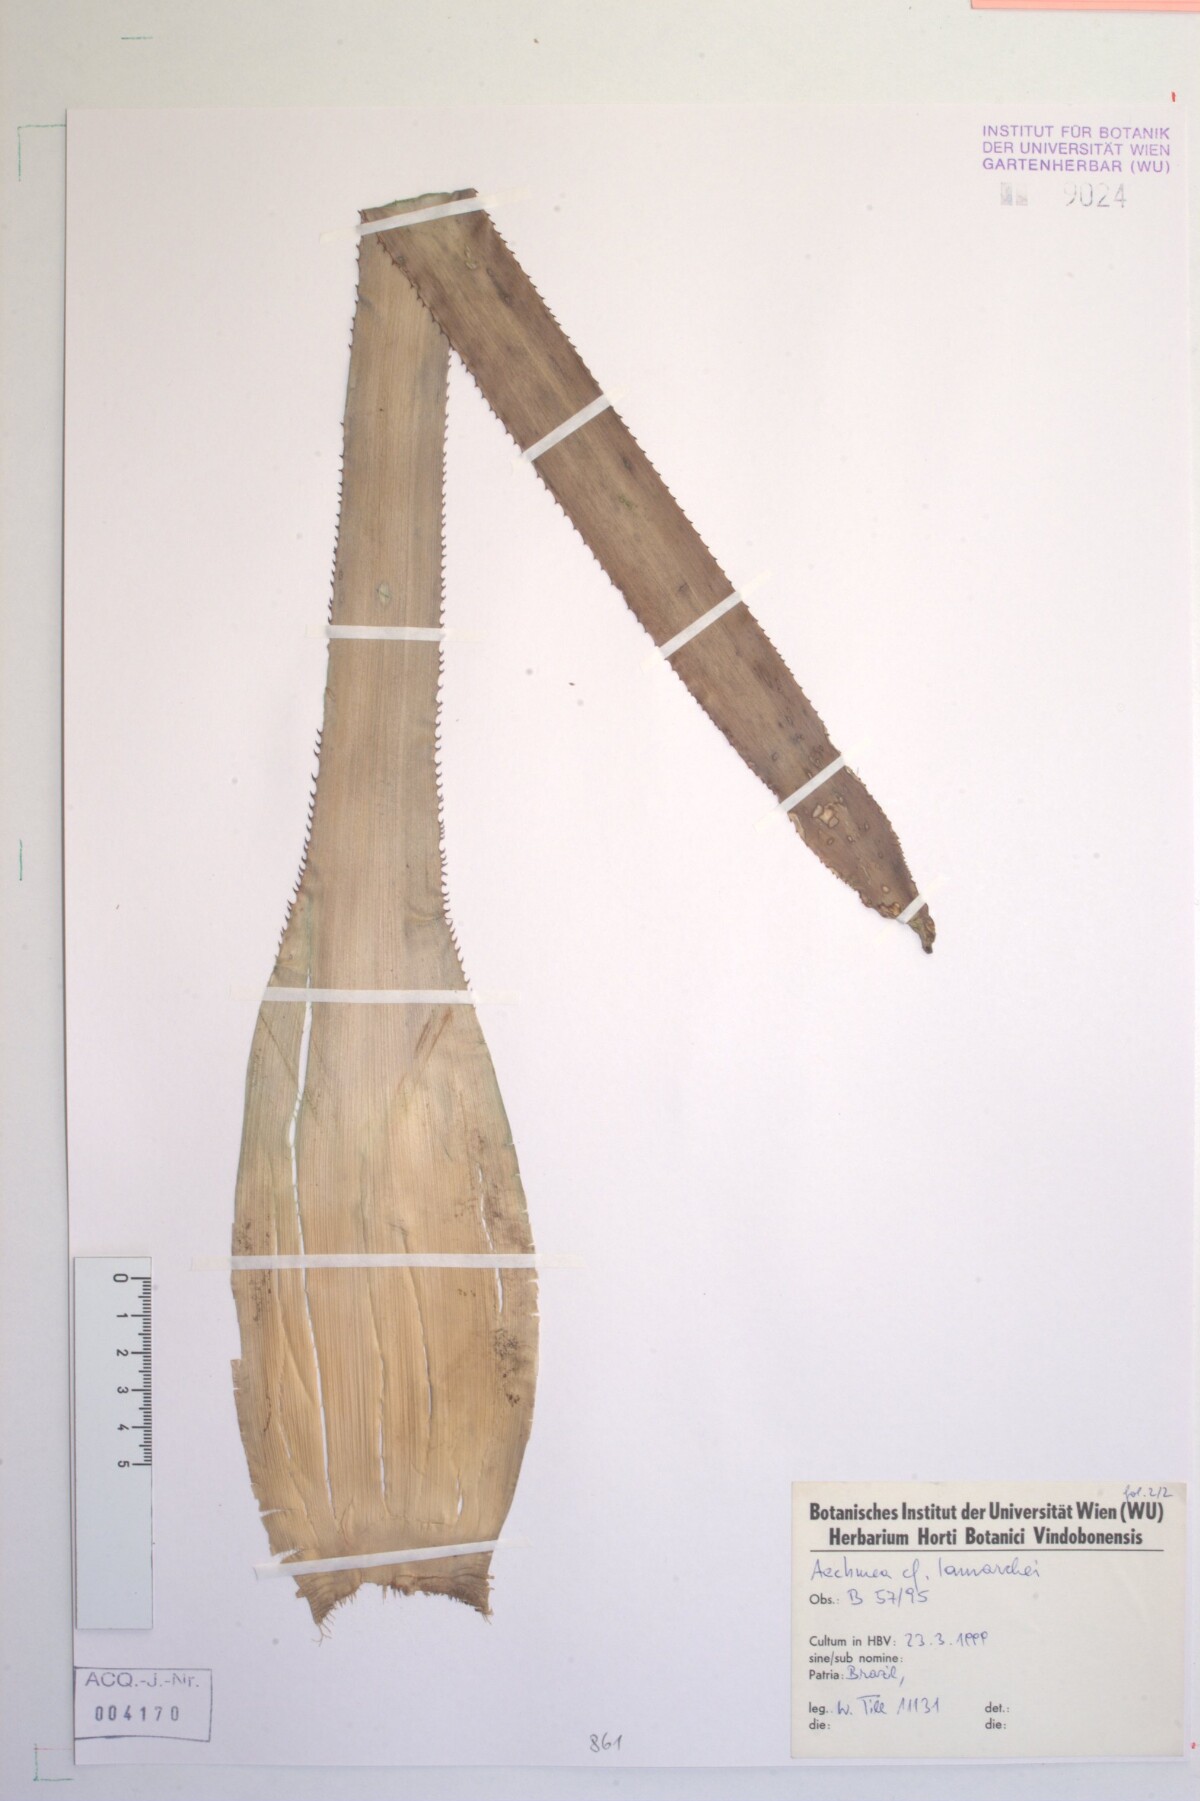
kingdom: Plantae
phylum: Tracheophyta
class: Liliopsida
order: Poales
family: Bromeliaceae
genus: Aechmea
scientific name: Aechmea lamarchei
